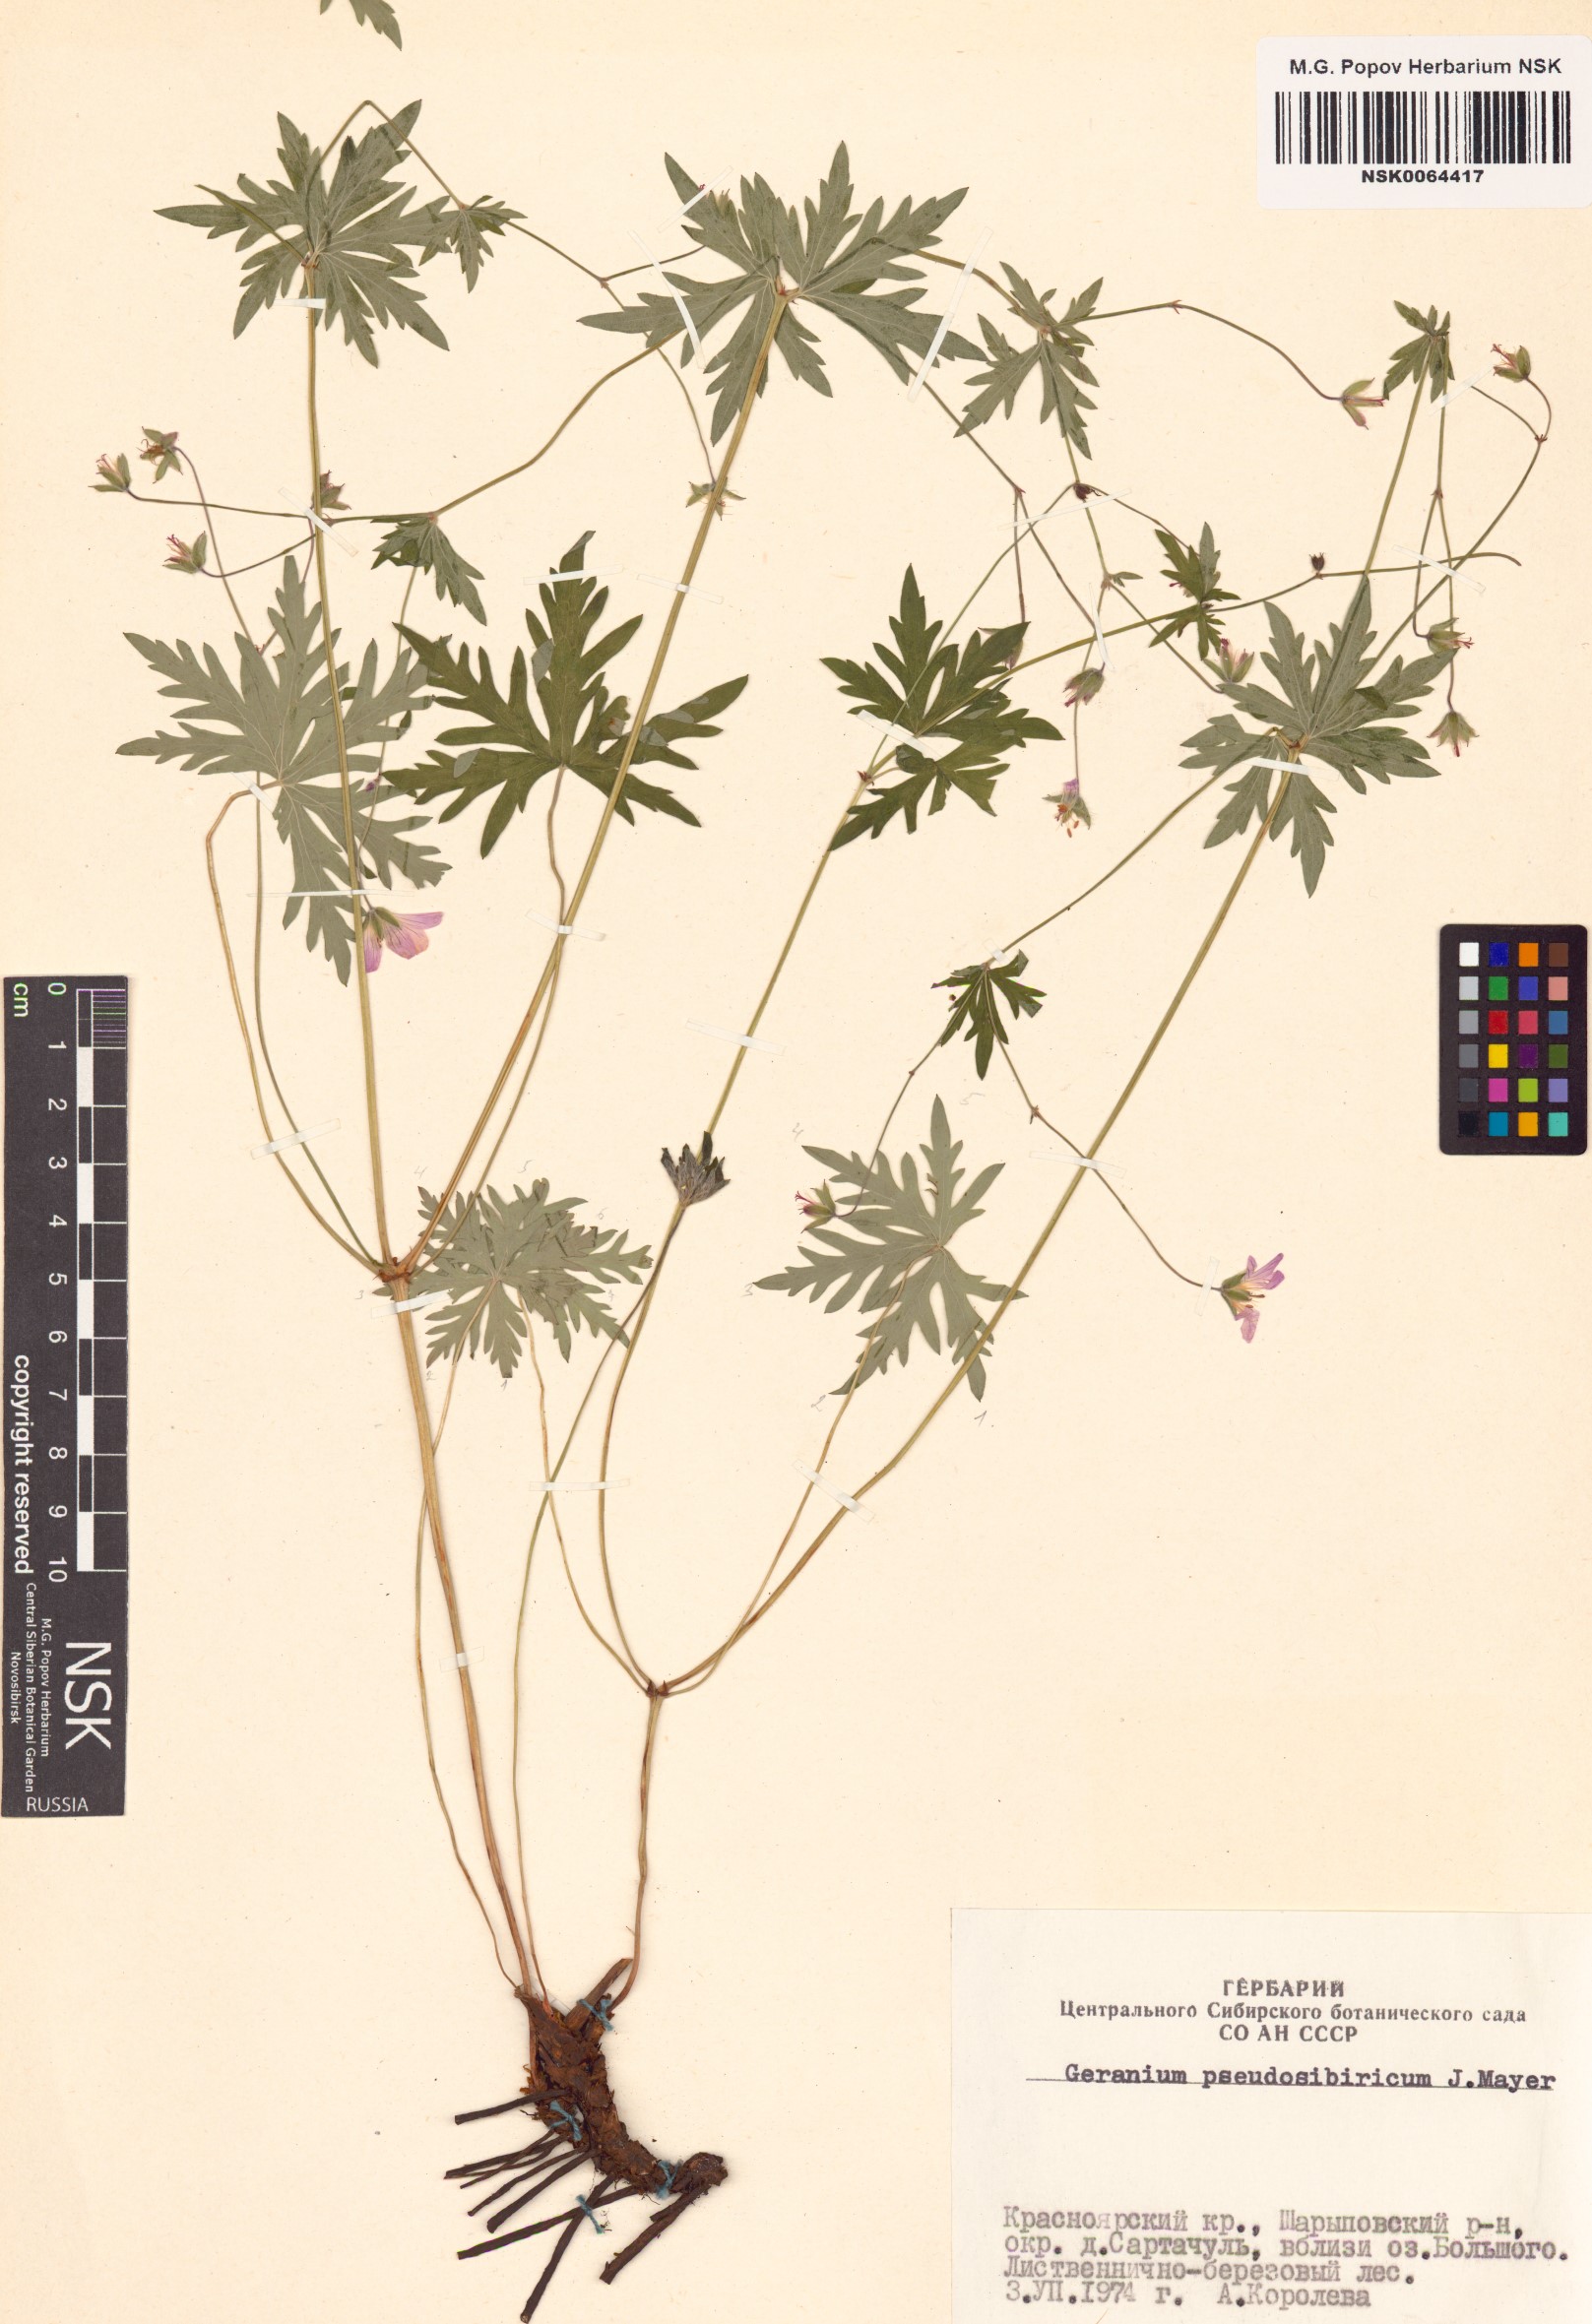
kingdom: Plantae
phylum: Tracheophyta
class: Magnoliopsida
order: Geraniales
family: Geraniaceae
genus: Geranium
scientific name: Geranium pseudosibiricum
